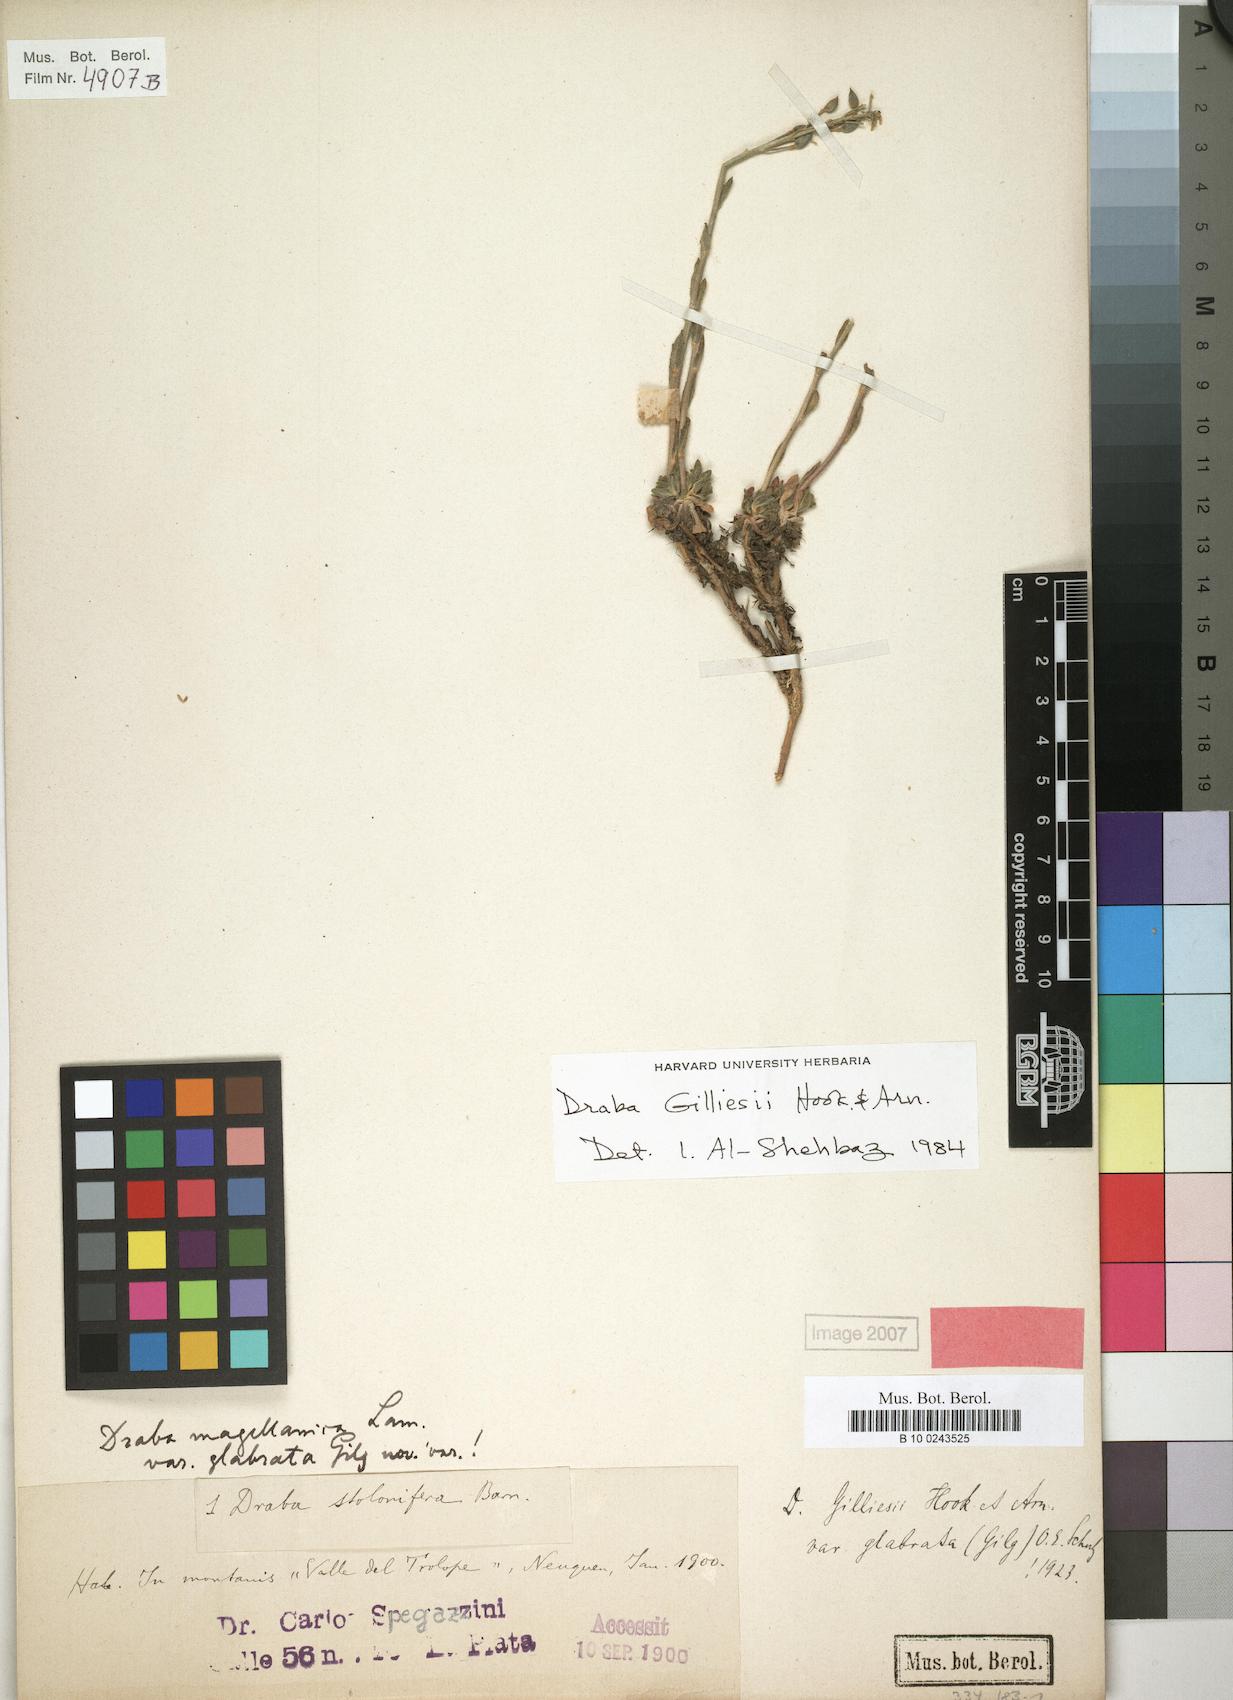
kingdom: Plantae
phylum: Tracheophyta
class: Magnoliopsida
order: Brassicales
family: Brassicaceae
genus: Draba
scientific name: Draba gilliesii
